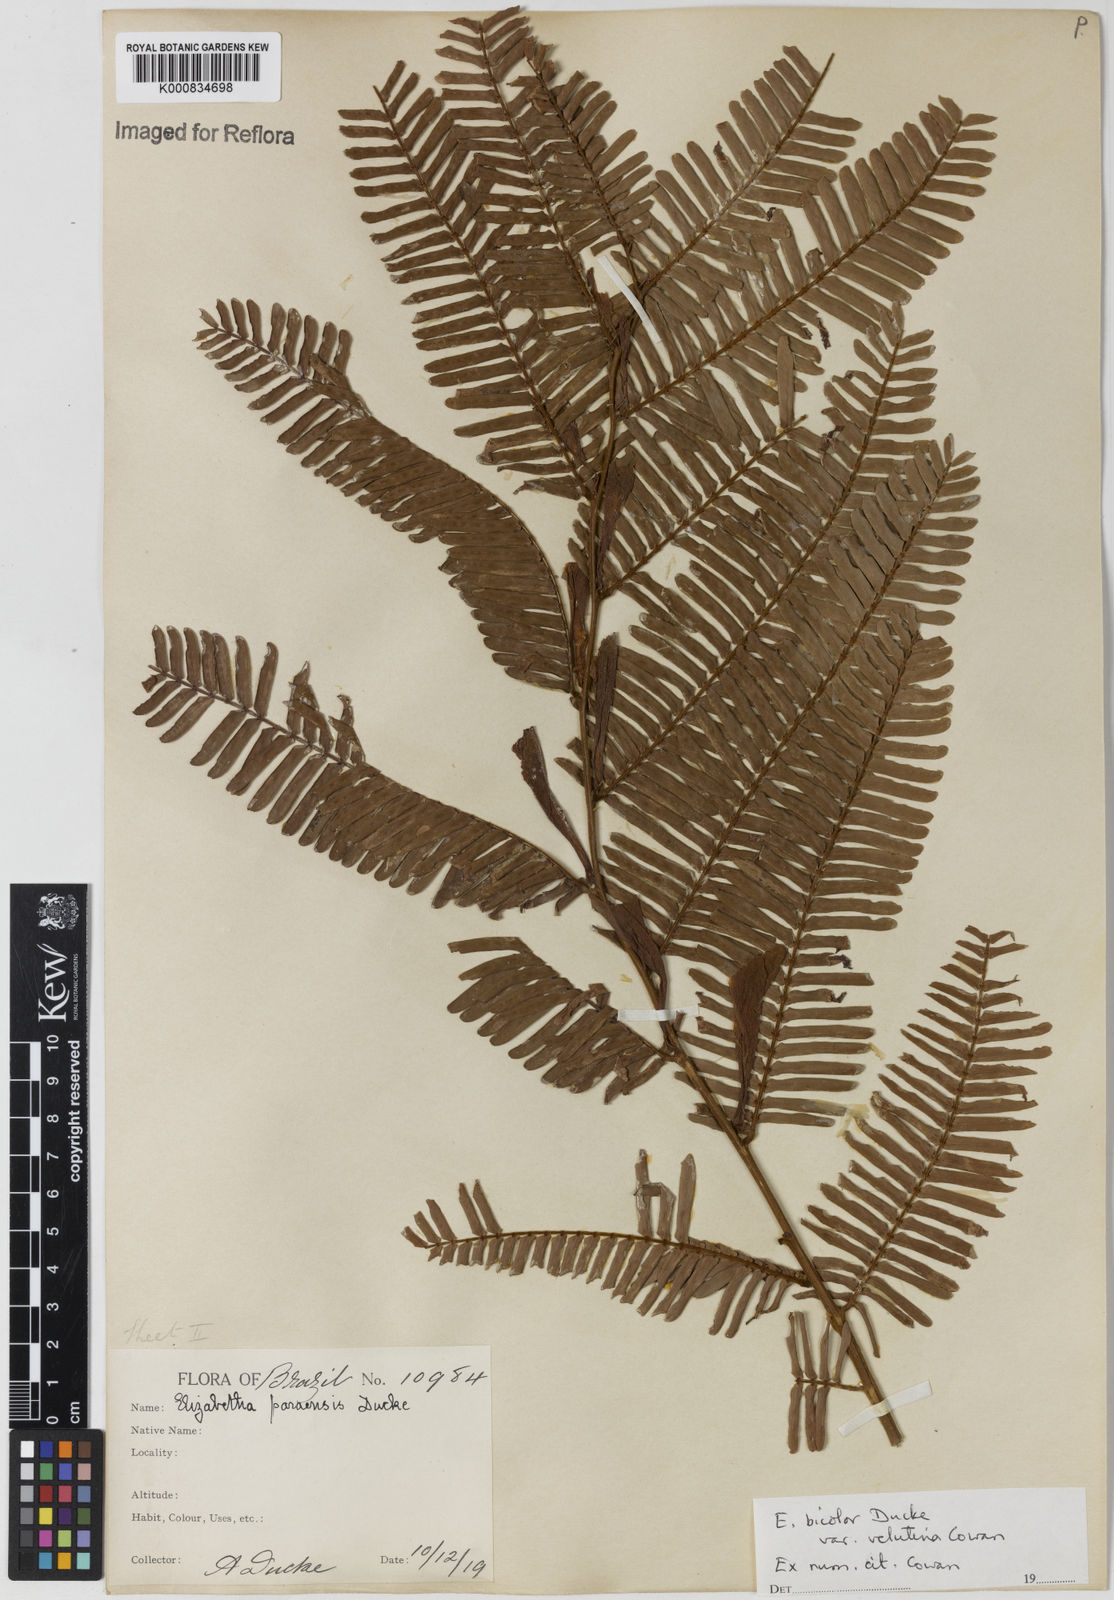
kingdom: Plantae
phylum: Tracheophyta
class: Magnoliopsida
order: Fabales
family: Fabaceae
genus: Paloue
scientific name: Paloue bicolor
